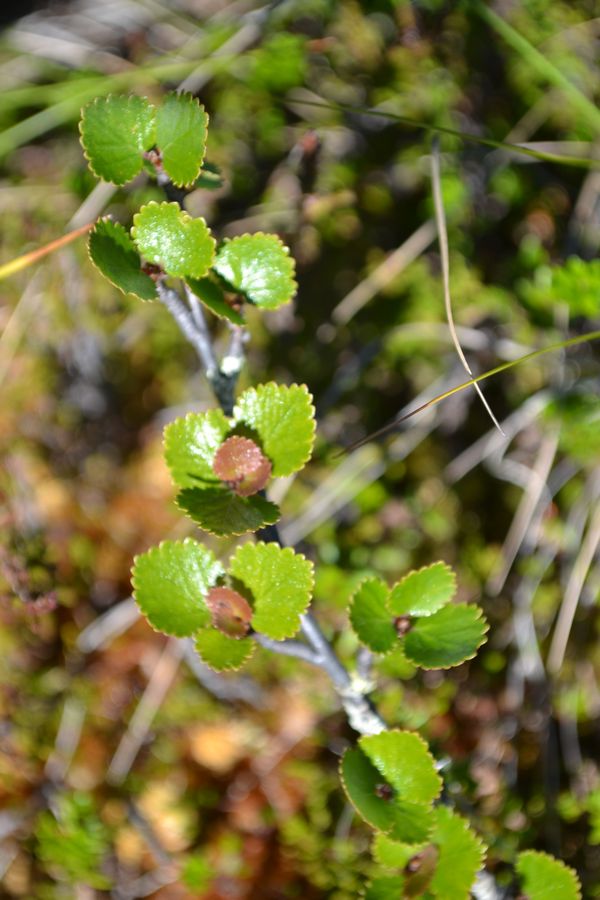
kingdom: Plantae
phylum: Tracheophyta
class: Magnoliopsida
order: Fagales
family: Betulaceae
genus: Betula
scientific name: Betula nana
